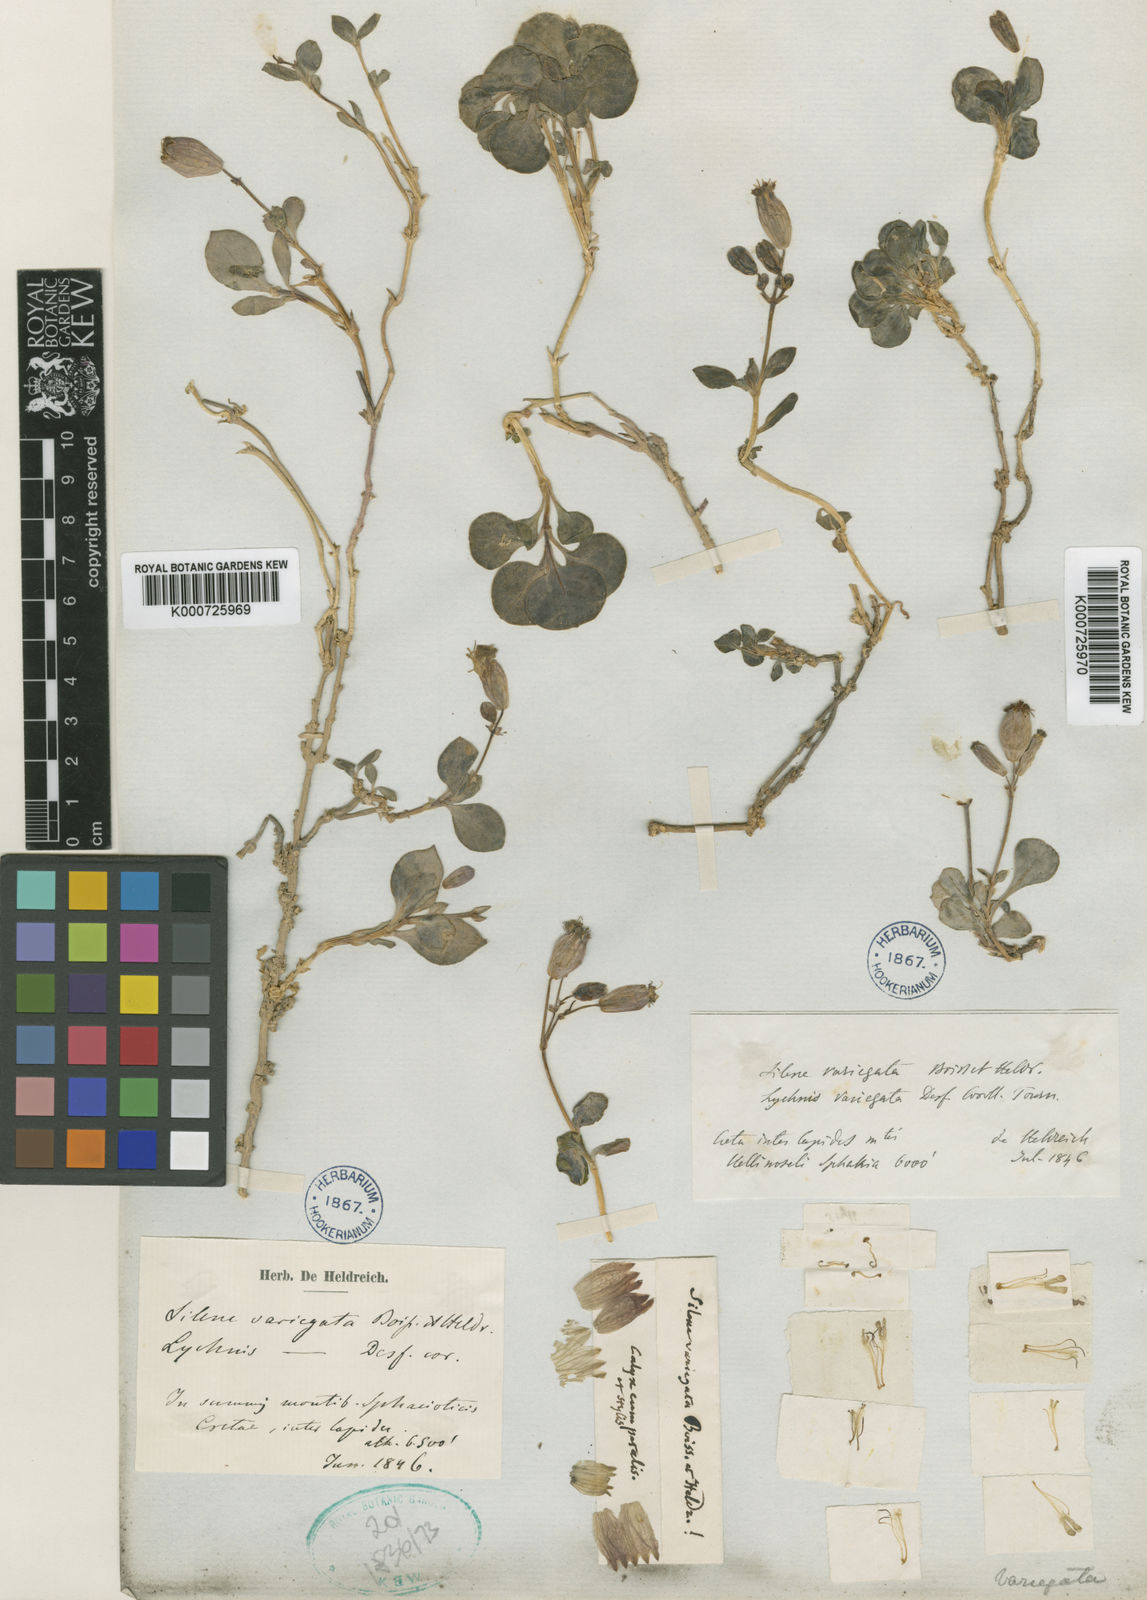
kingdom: Plantae
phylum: Tracheophyta
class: Magnoliopsida
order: Caryophyllales
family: Caryophyllaceae
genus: Silene
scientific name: Silene variegata
